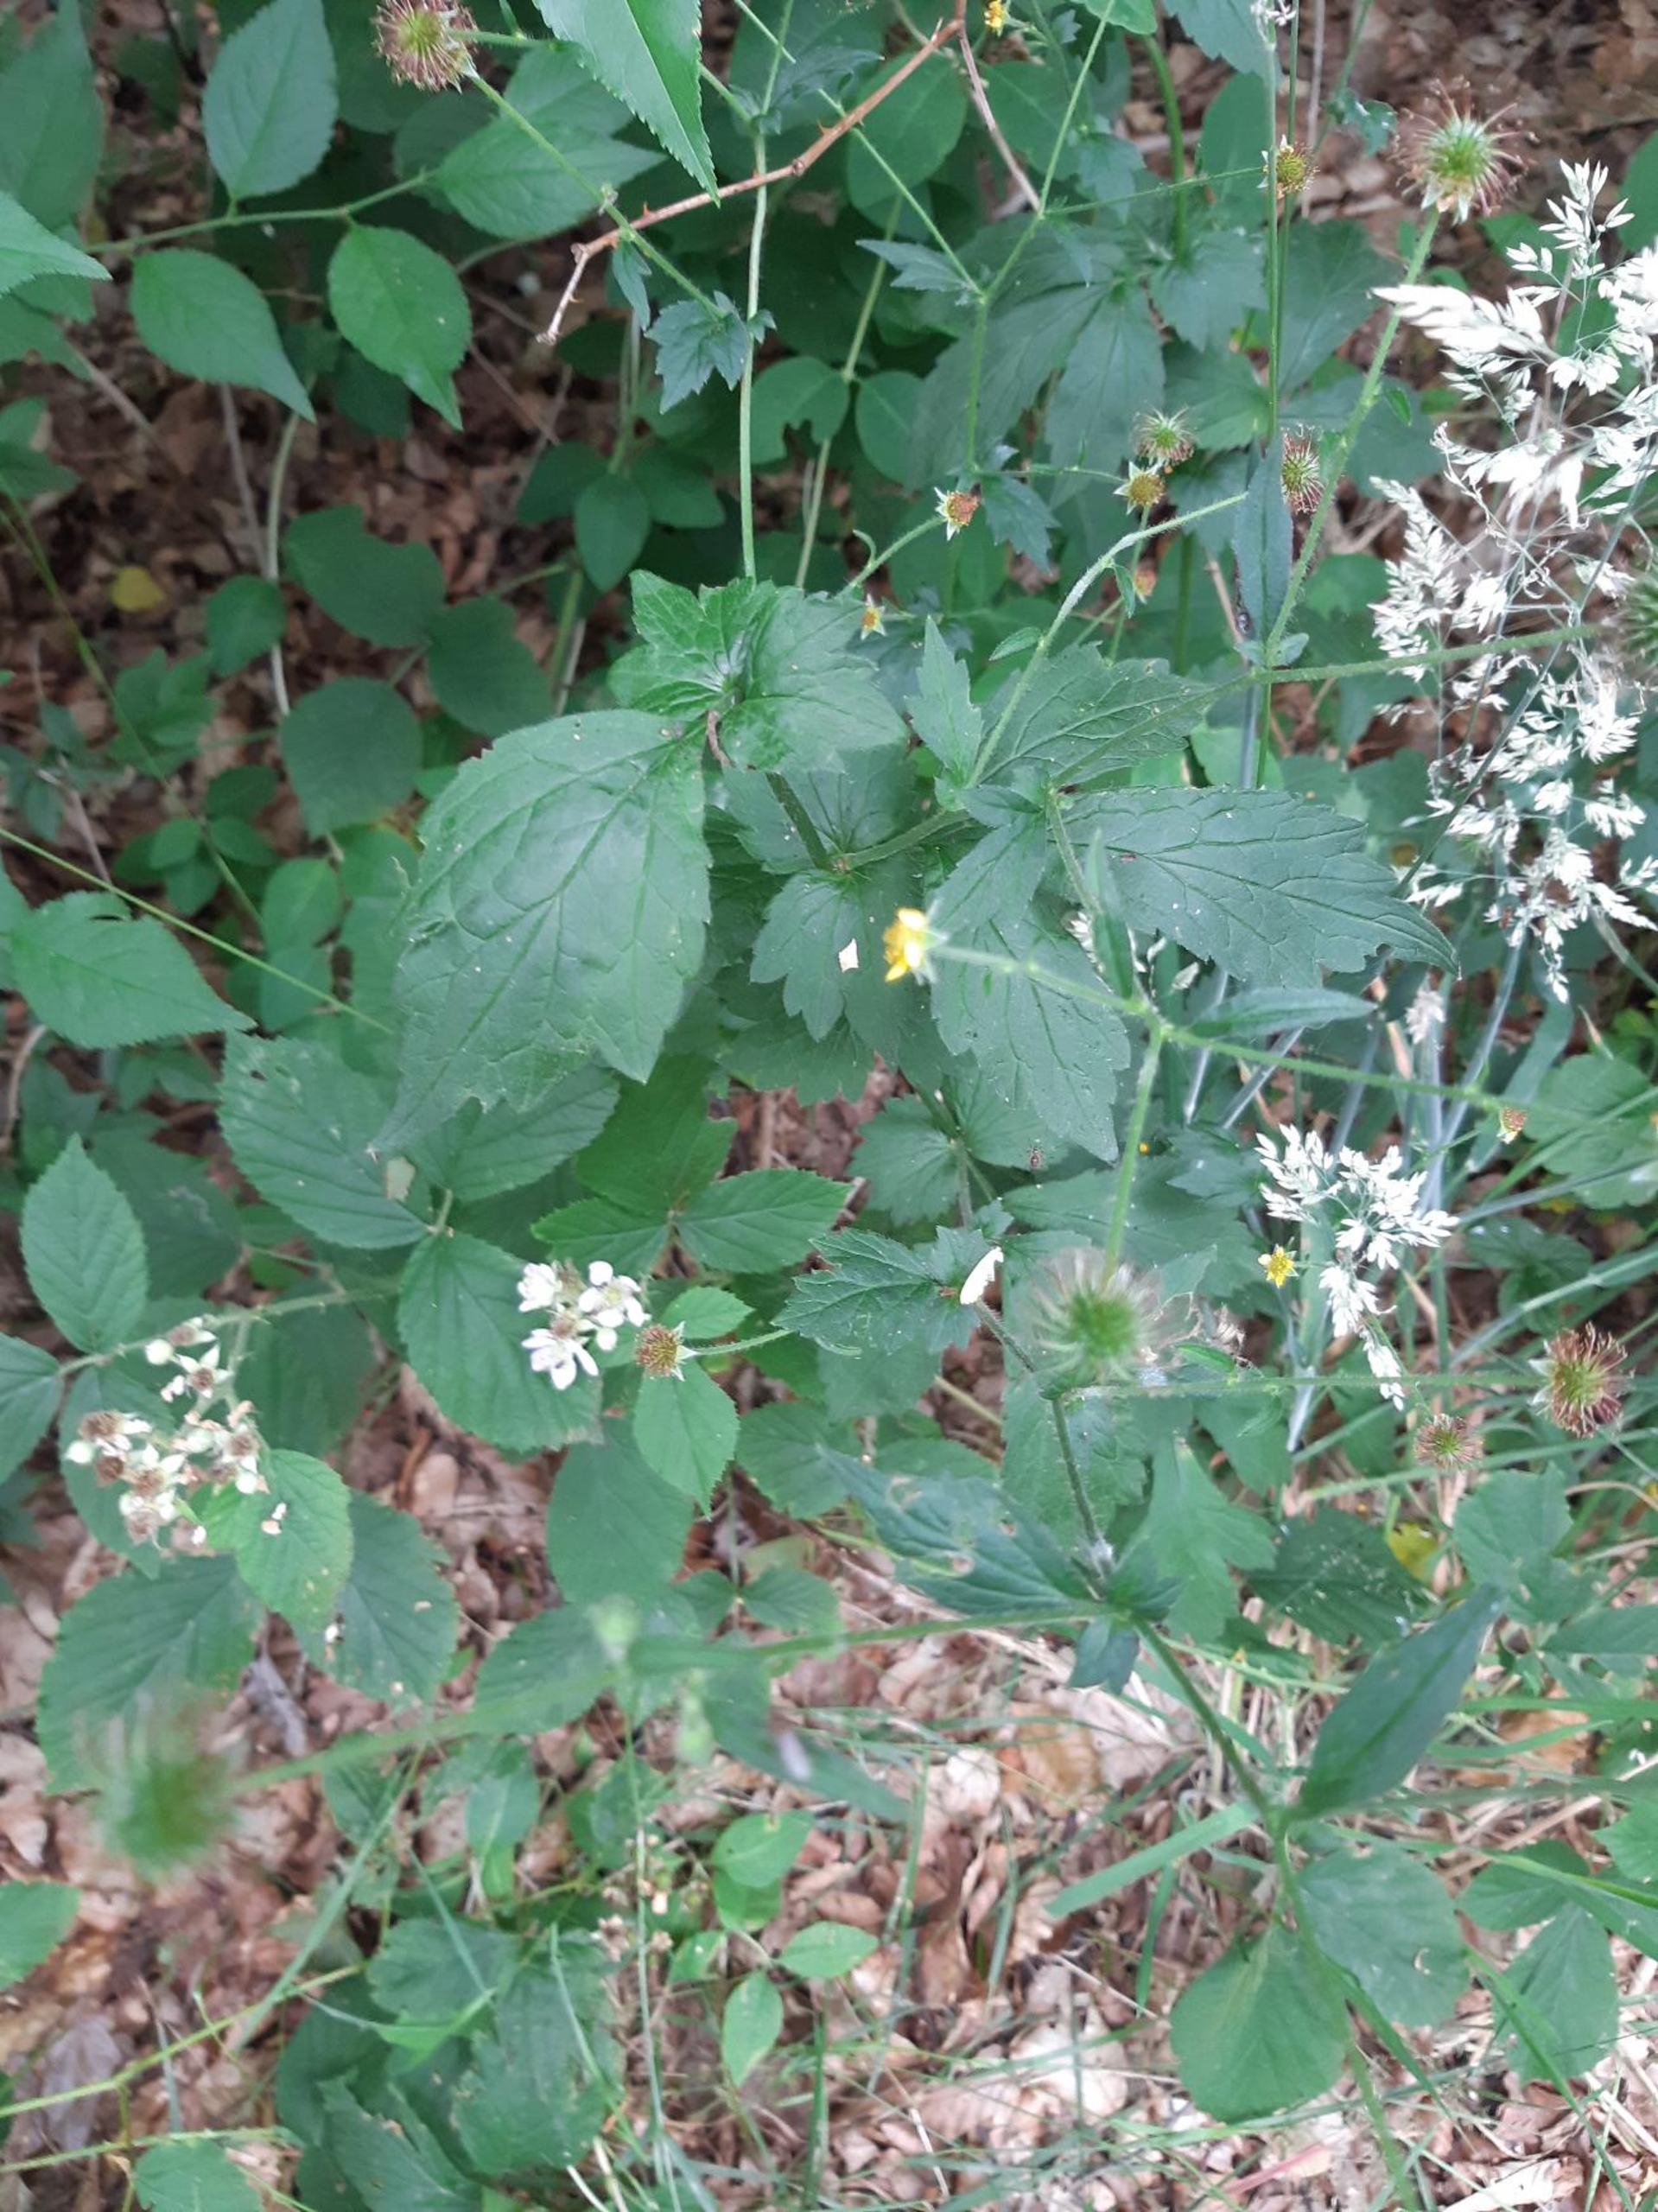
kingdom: Plantae
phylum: Tracheophyta
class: Magnoliopsida
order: Rosales
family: Rosaceae
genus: Geum
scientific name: Geum urbanum
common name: Feber-nellikerod
